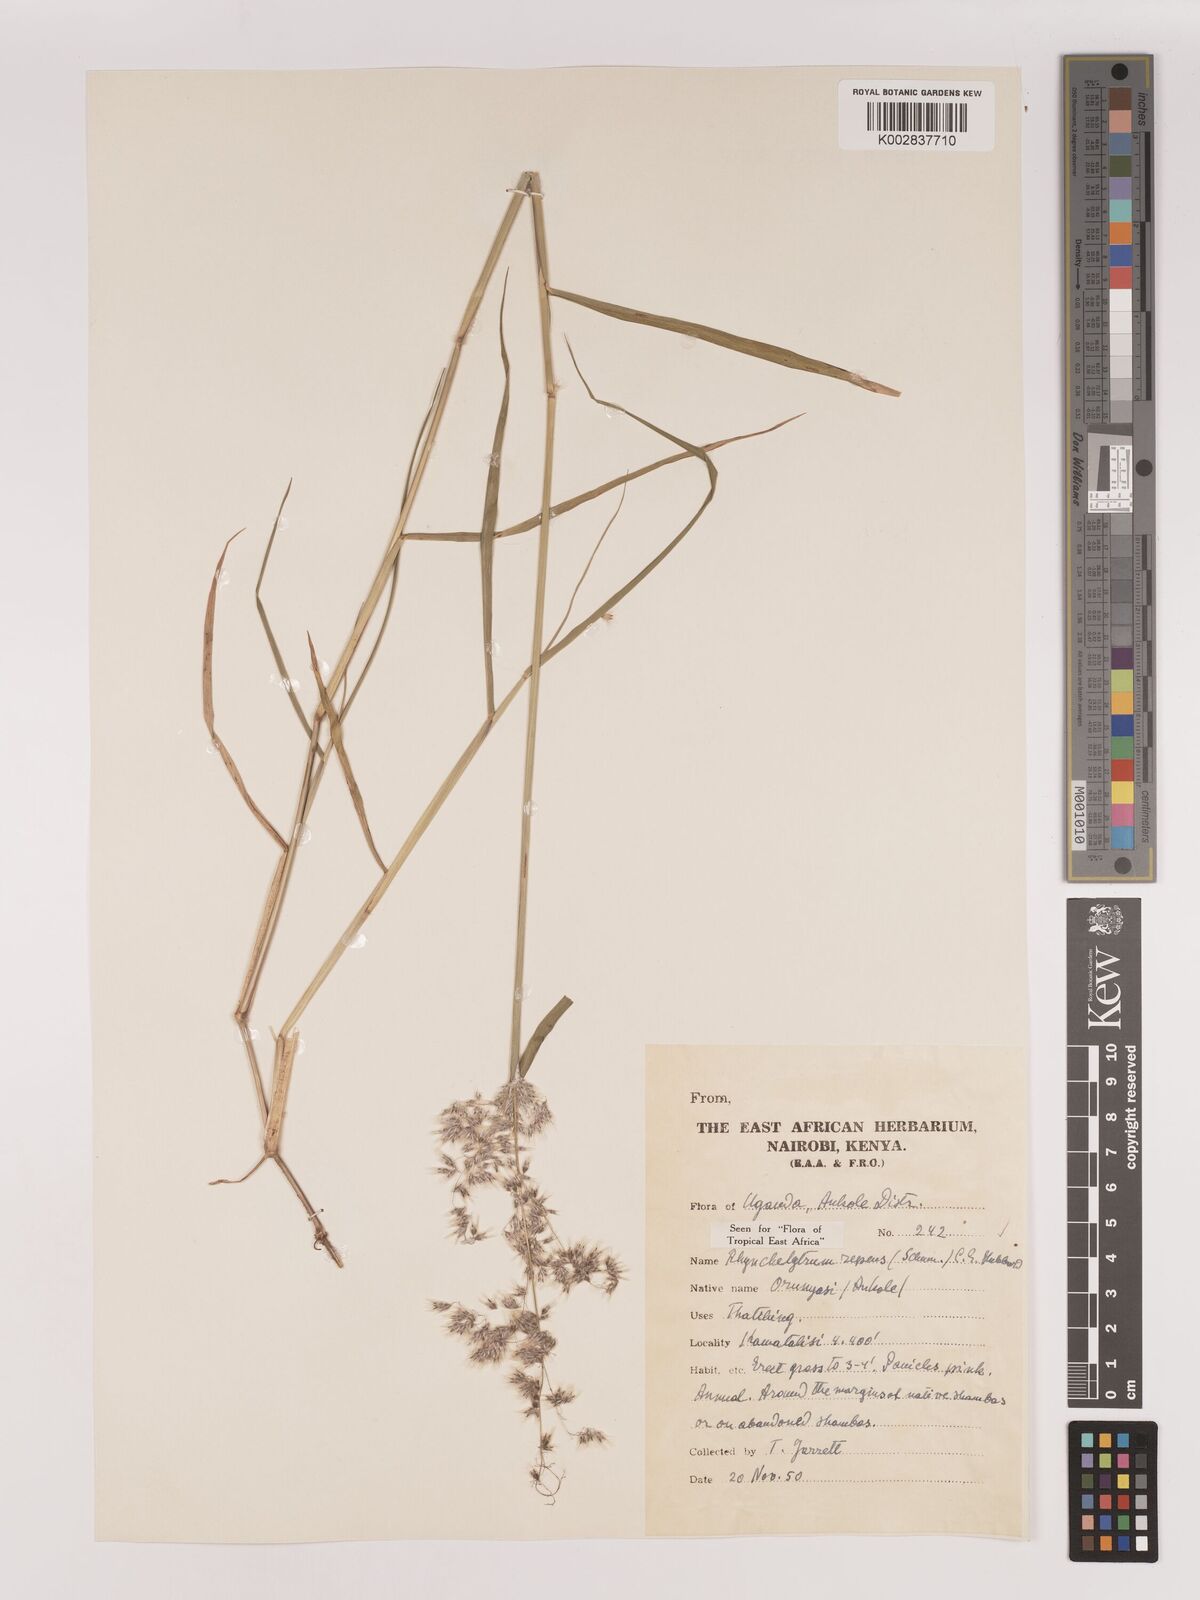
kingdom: Plantae
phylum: Tracheophyta
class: Liliopsida
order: Poales
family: Poaceae
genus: Melinis
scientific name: Melinis repens
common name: Rose natal grass
